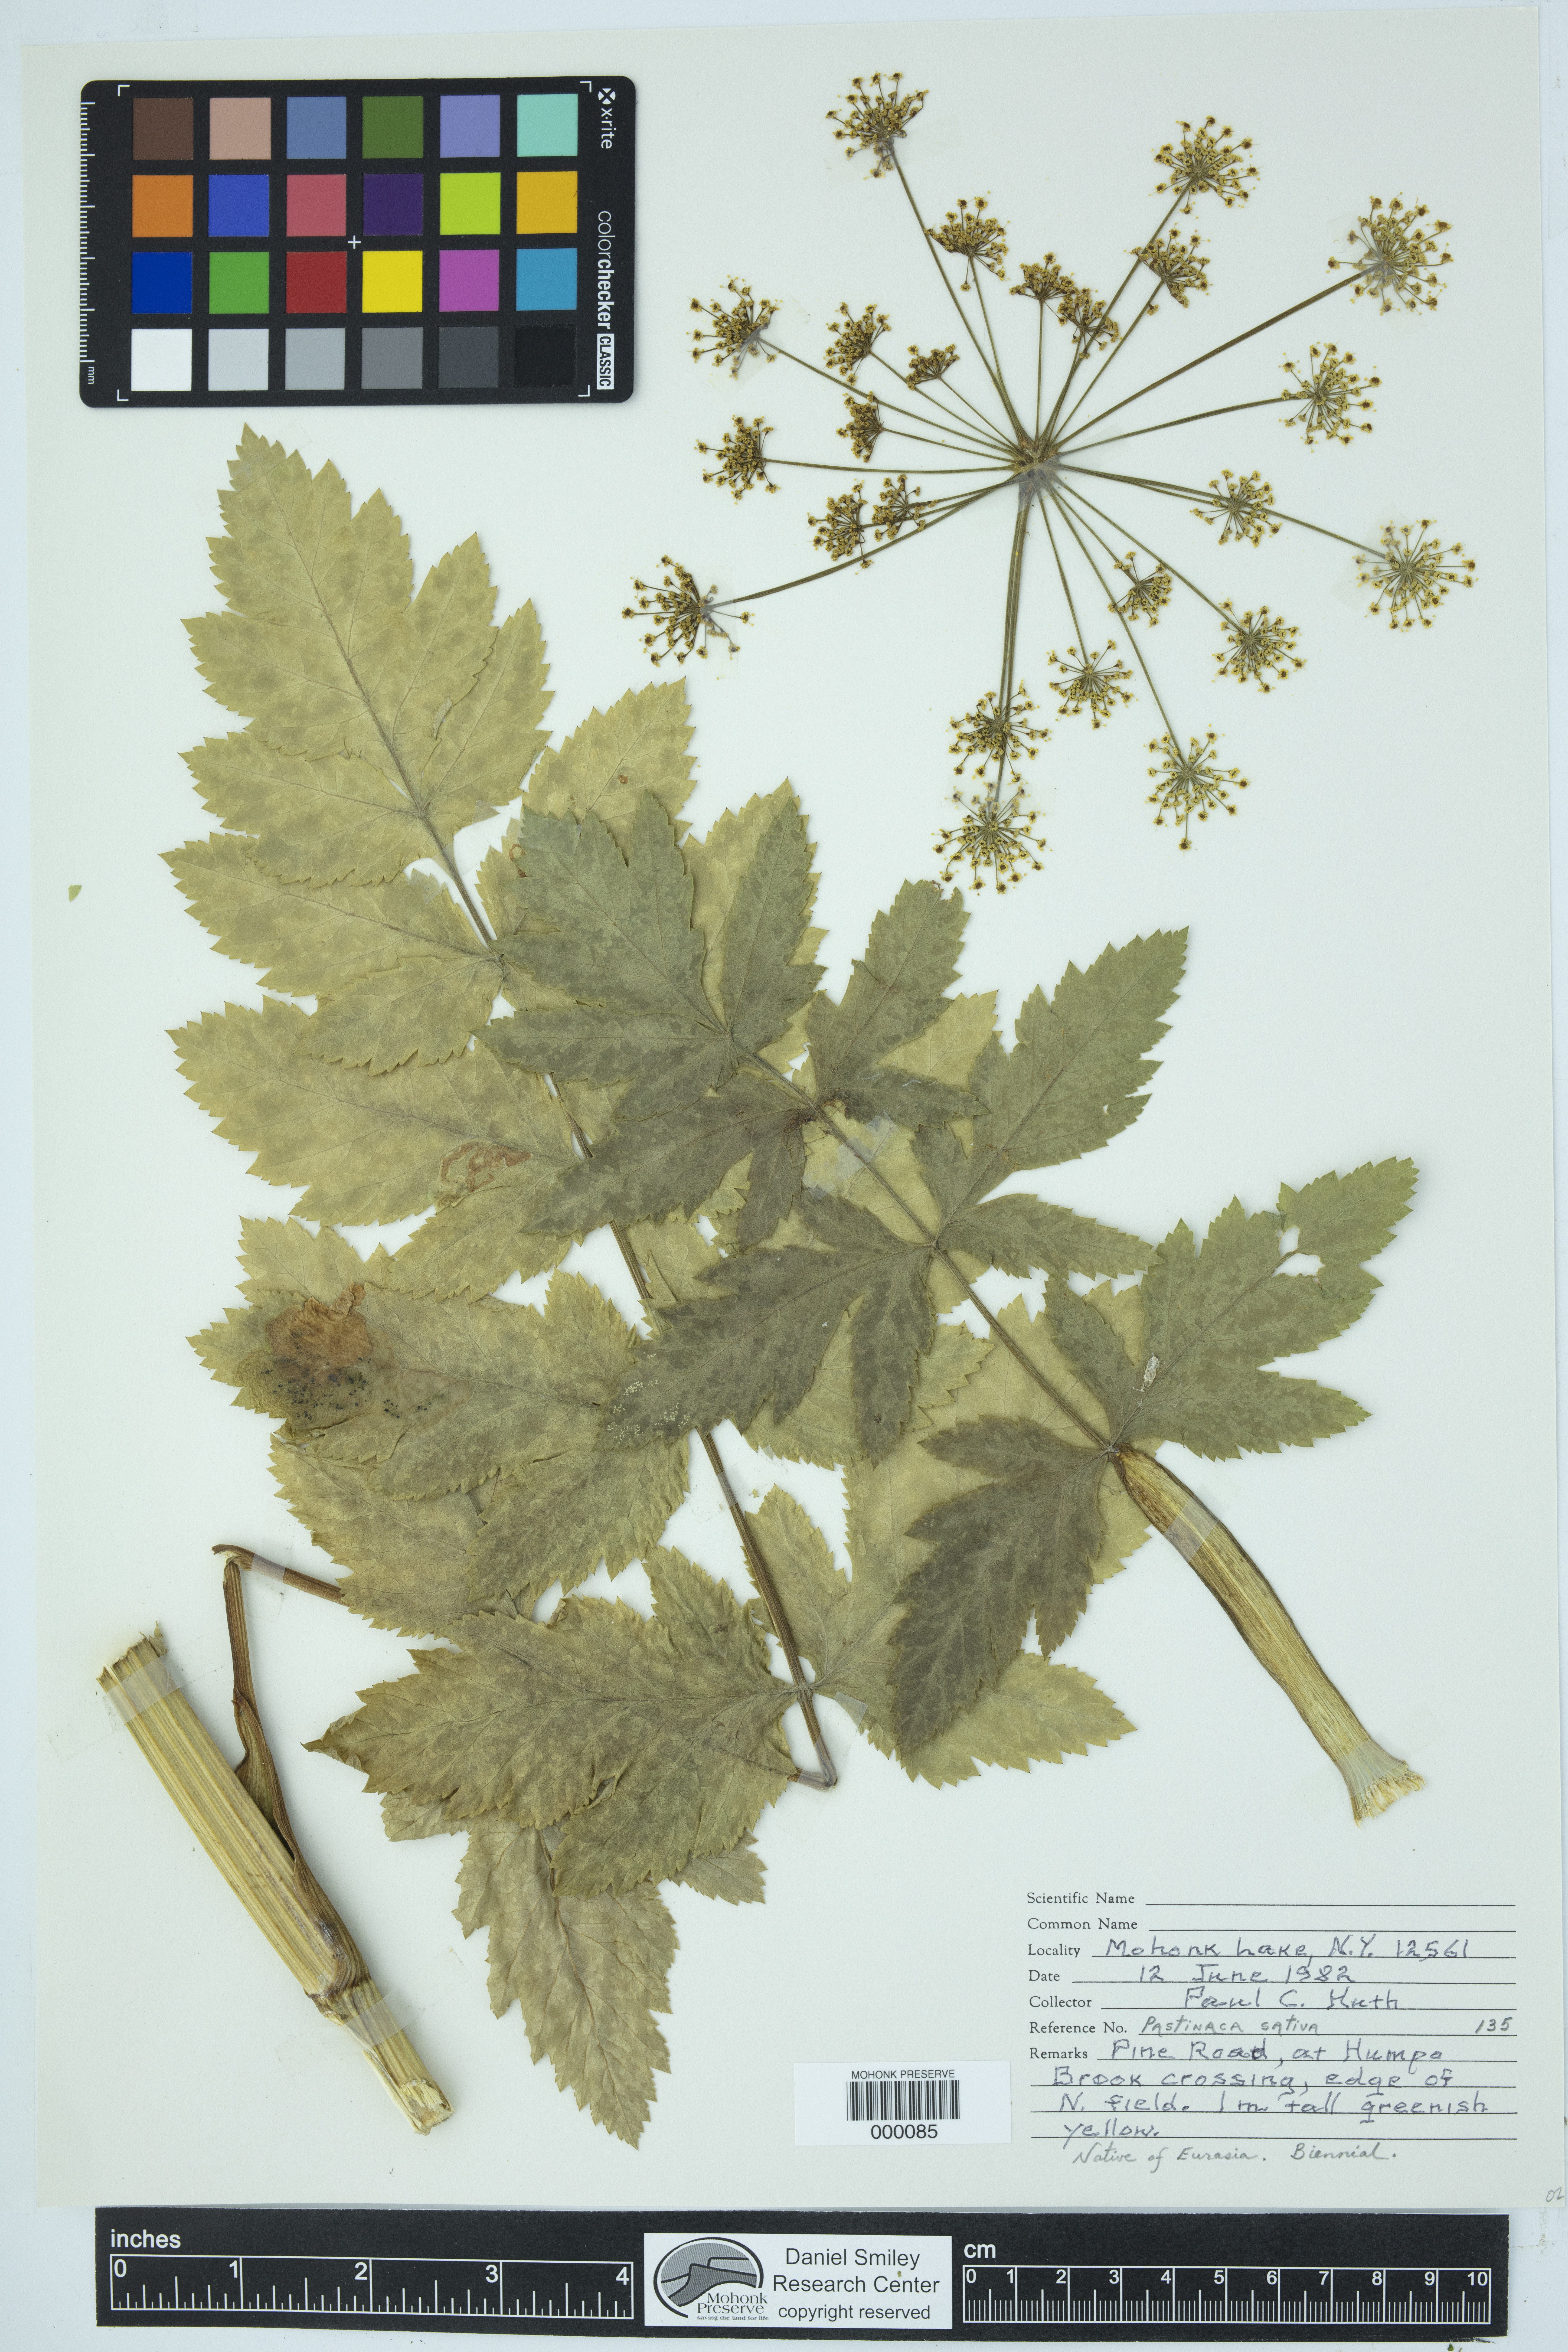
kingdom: Plantae
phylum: Tracheophyta
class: Magnoliopsida
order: Apiales
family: Apiaceae
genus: Pastinaca
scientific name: Pastinaca sativa
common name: Wild parsnip
